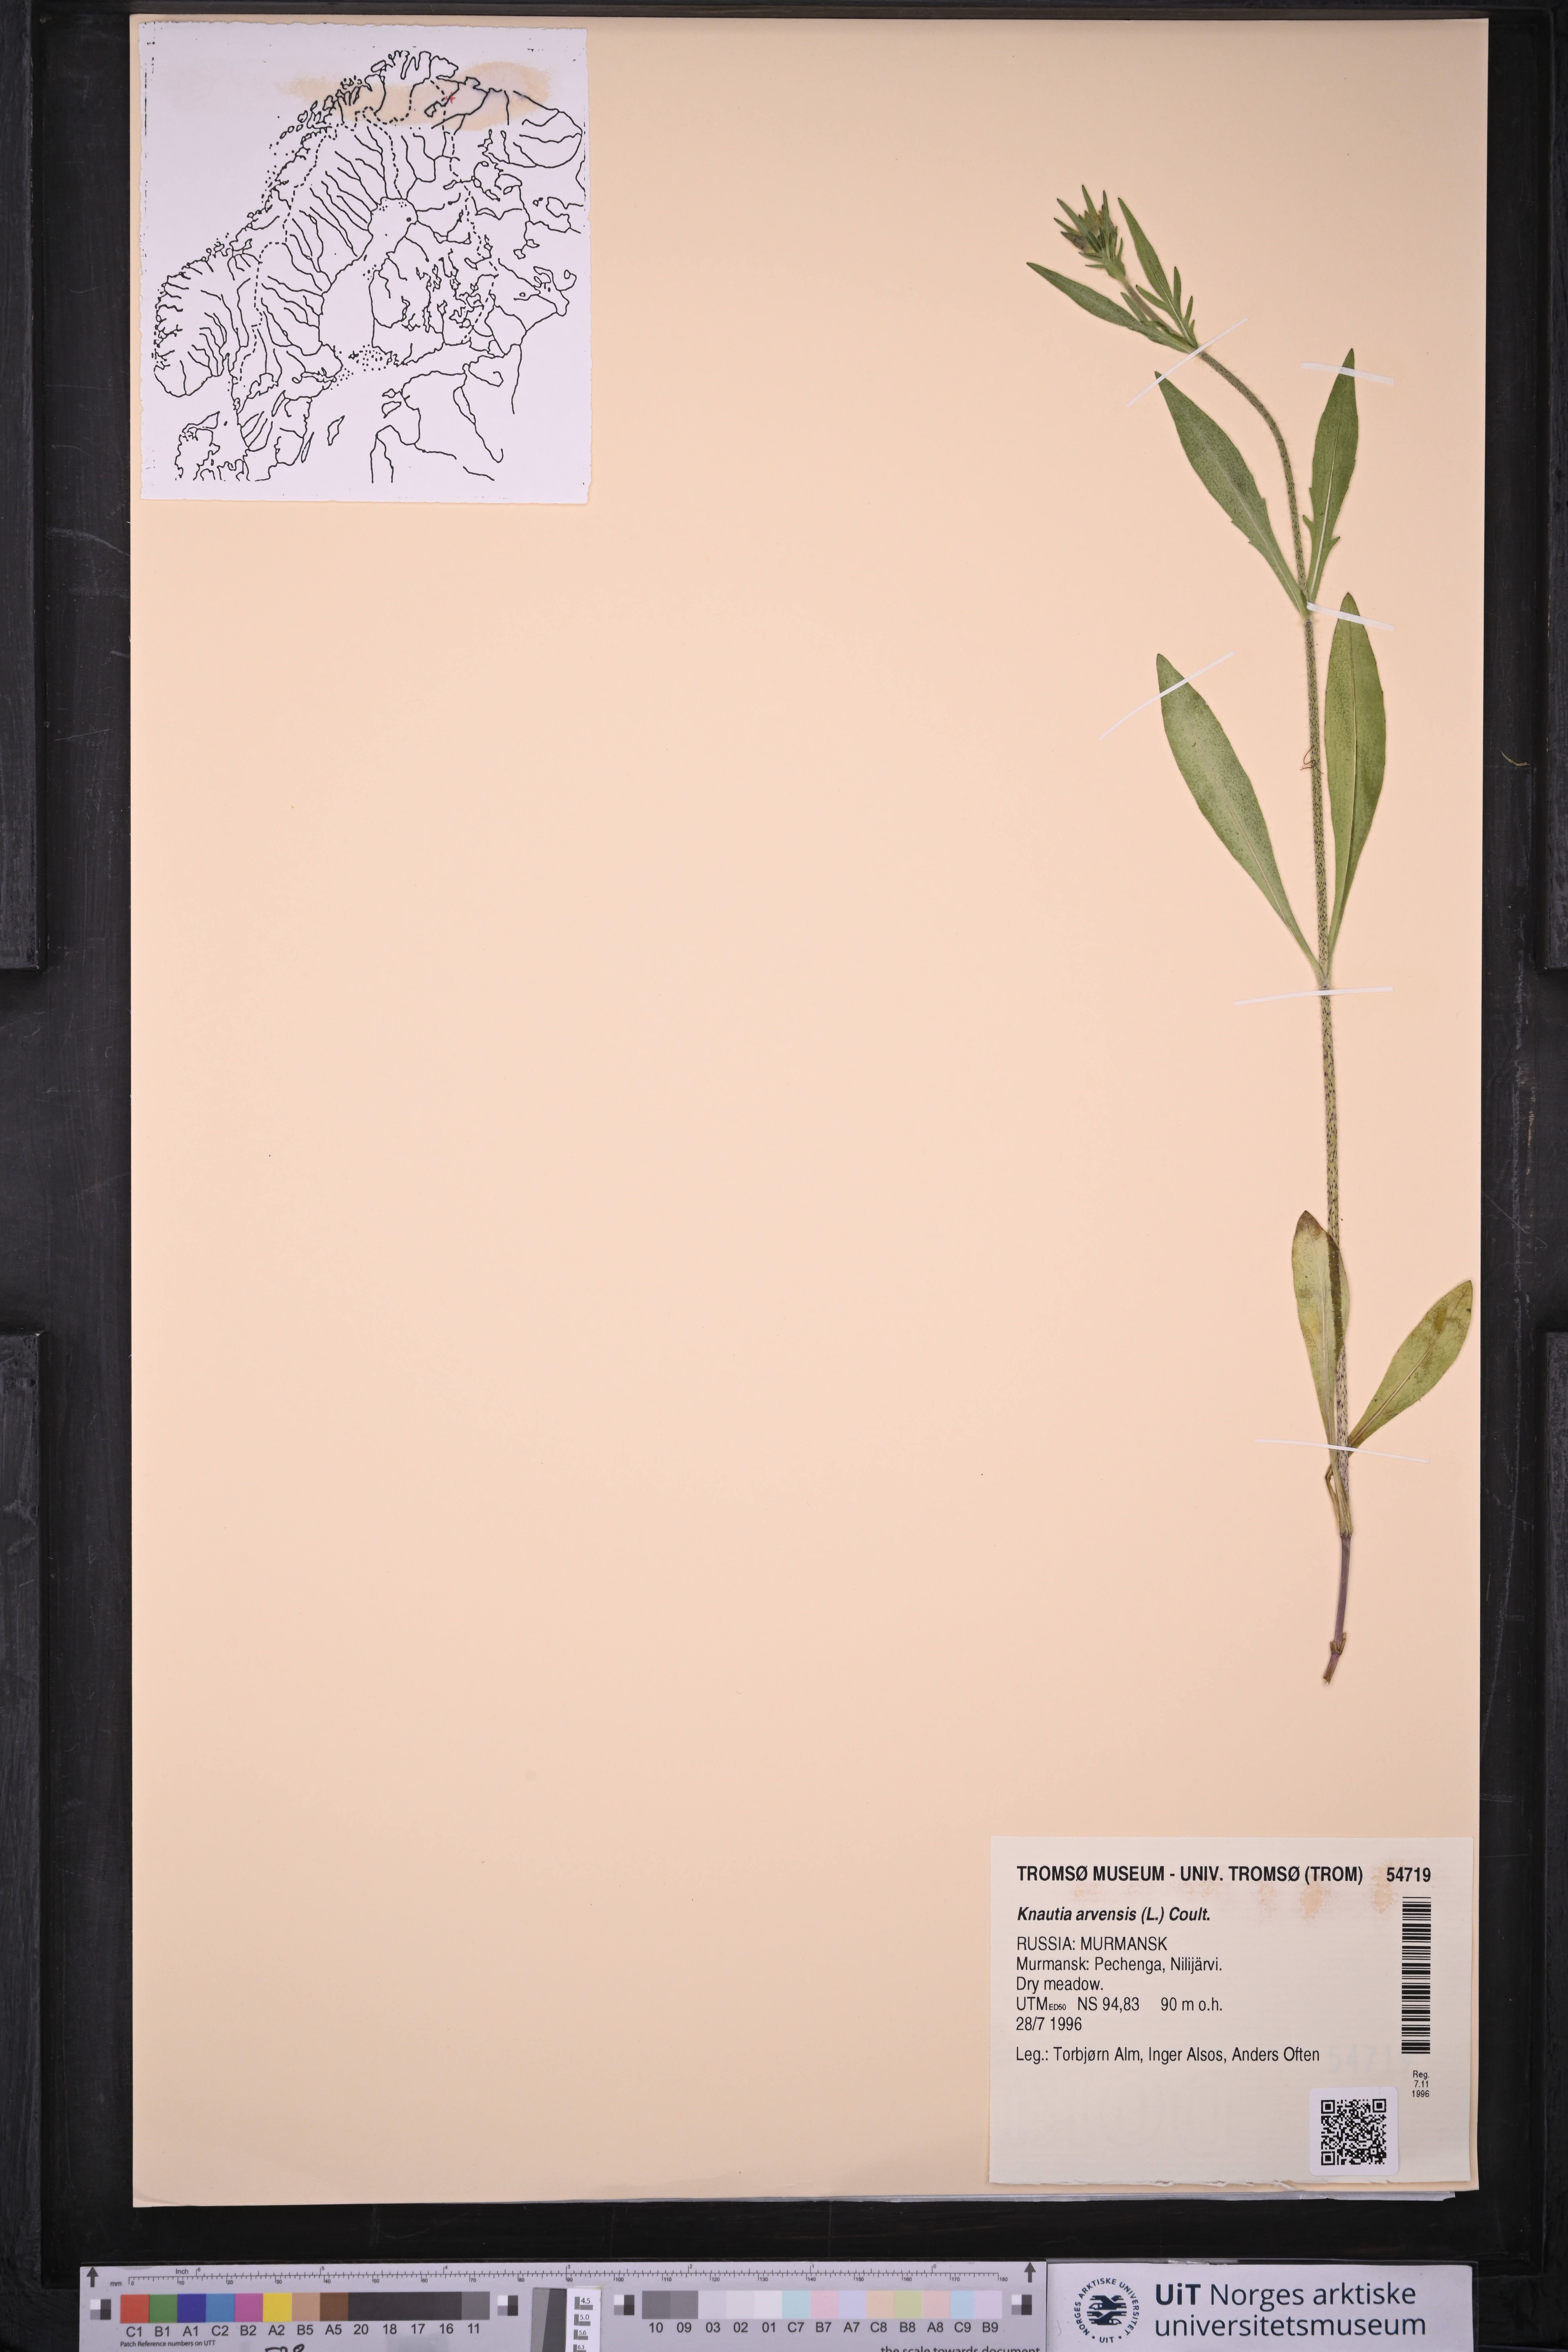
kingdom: Plantae
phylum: Tracheophyta
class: Magnoliopsida
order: Dipsacales
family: Caprifoliaceae
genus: Knautia
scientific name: Knautia arvensis
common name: Field scabiosa
